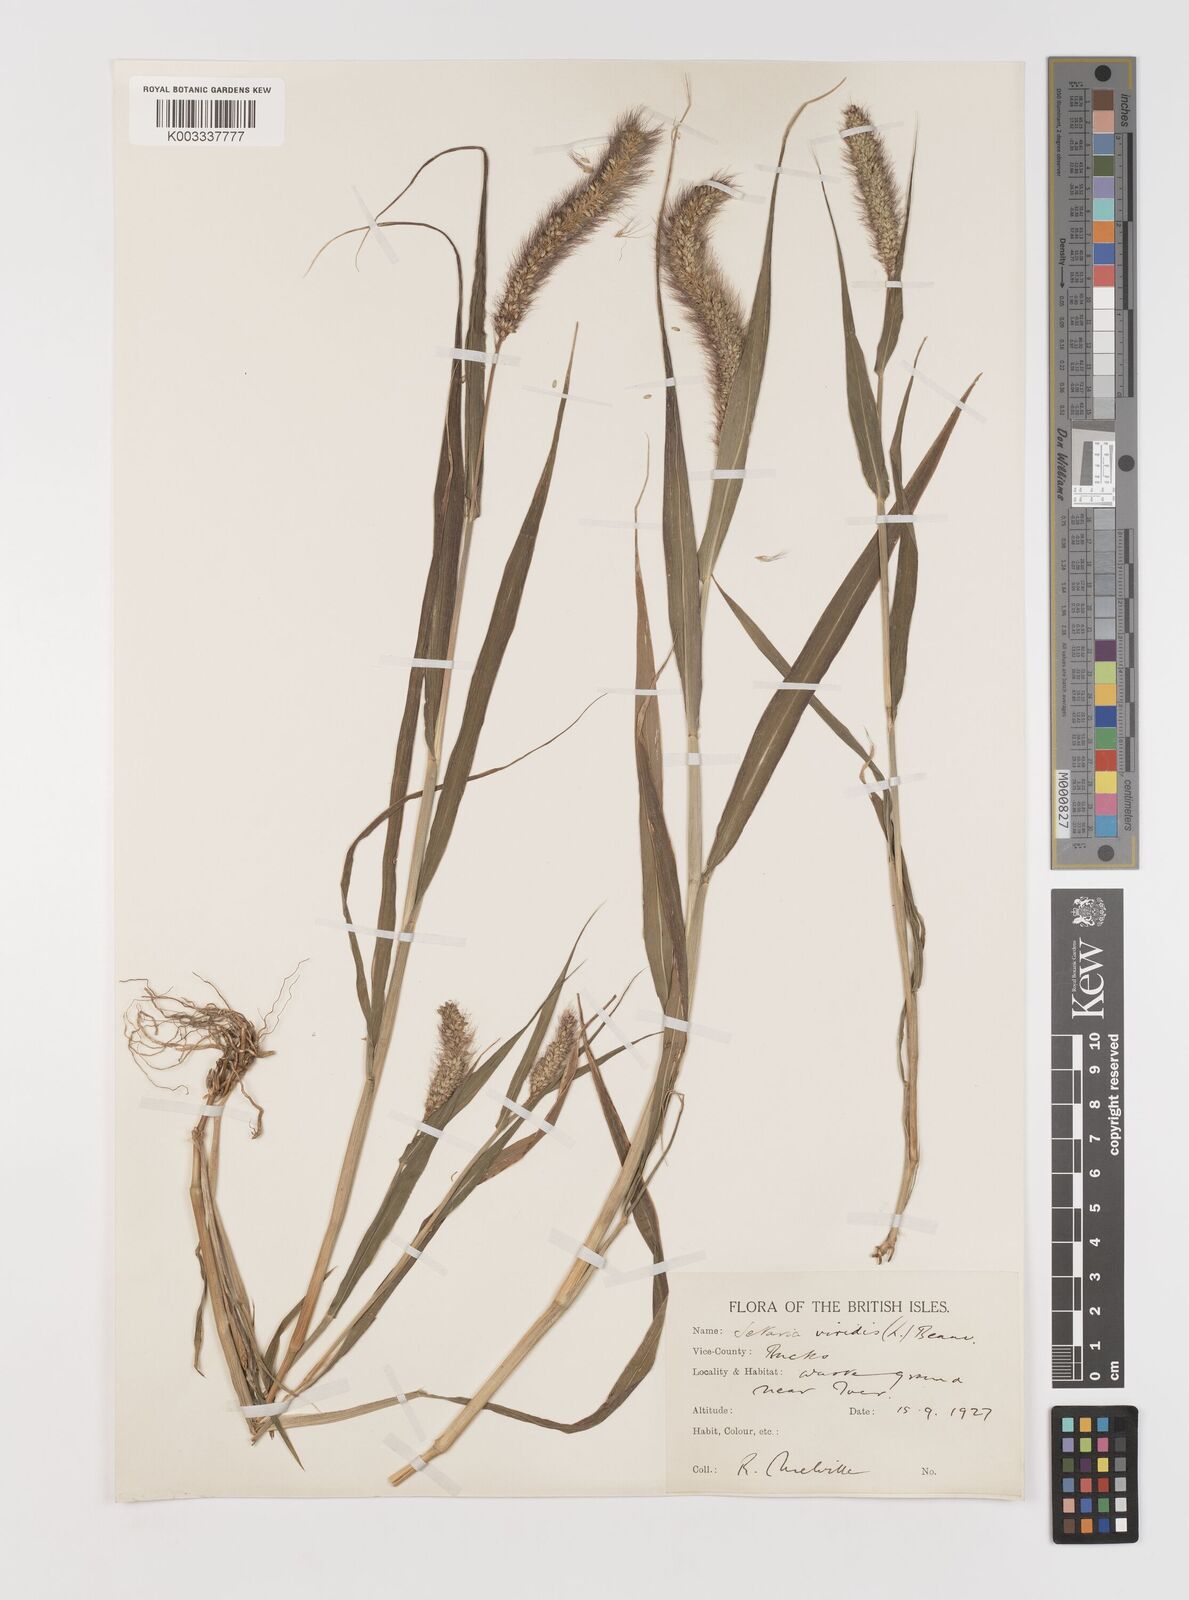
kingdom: Plantae
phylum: Tracheophyta
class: Liliopsida
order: Poales
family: Poaceae
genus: Setaria
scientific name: Setaria viridis
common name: Green bristlegrass
